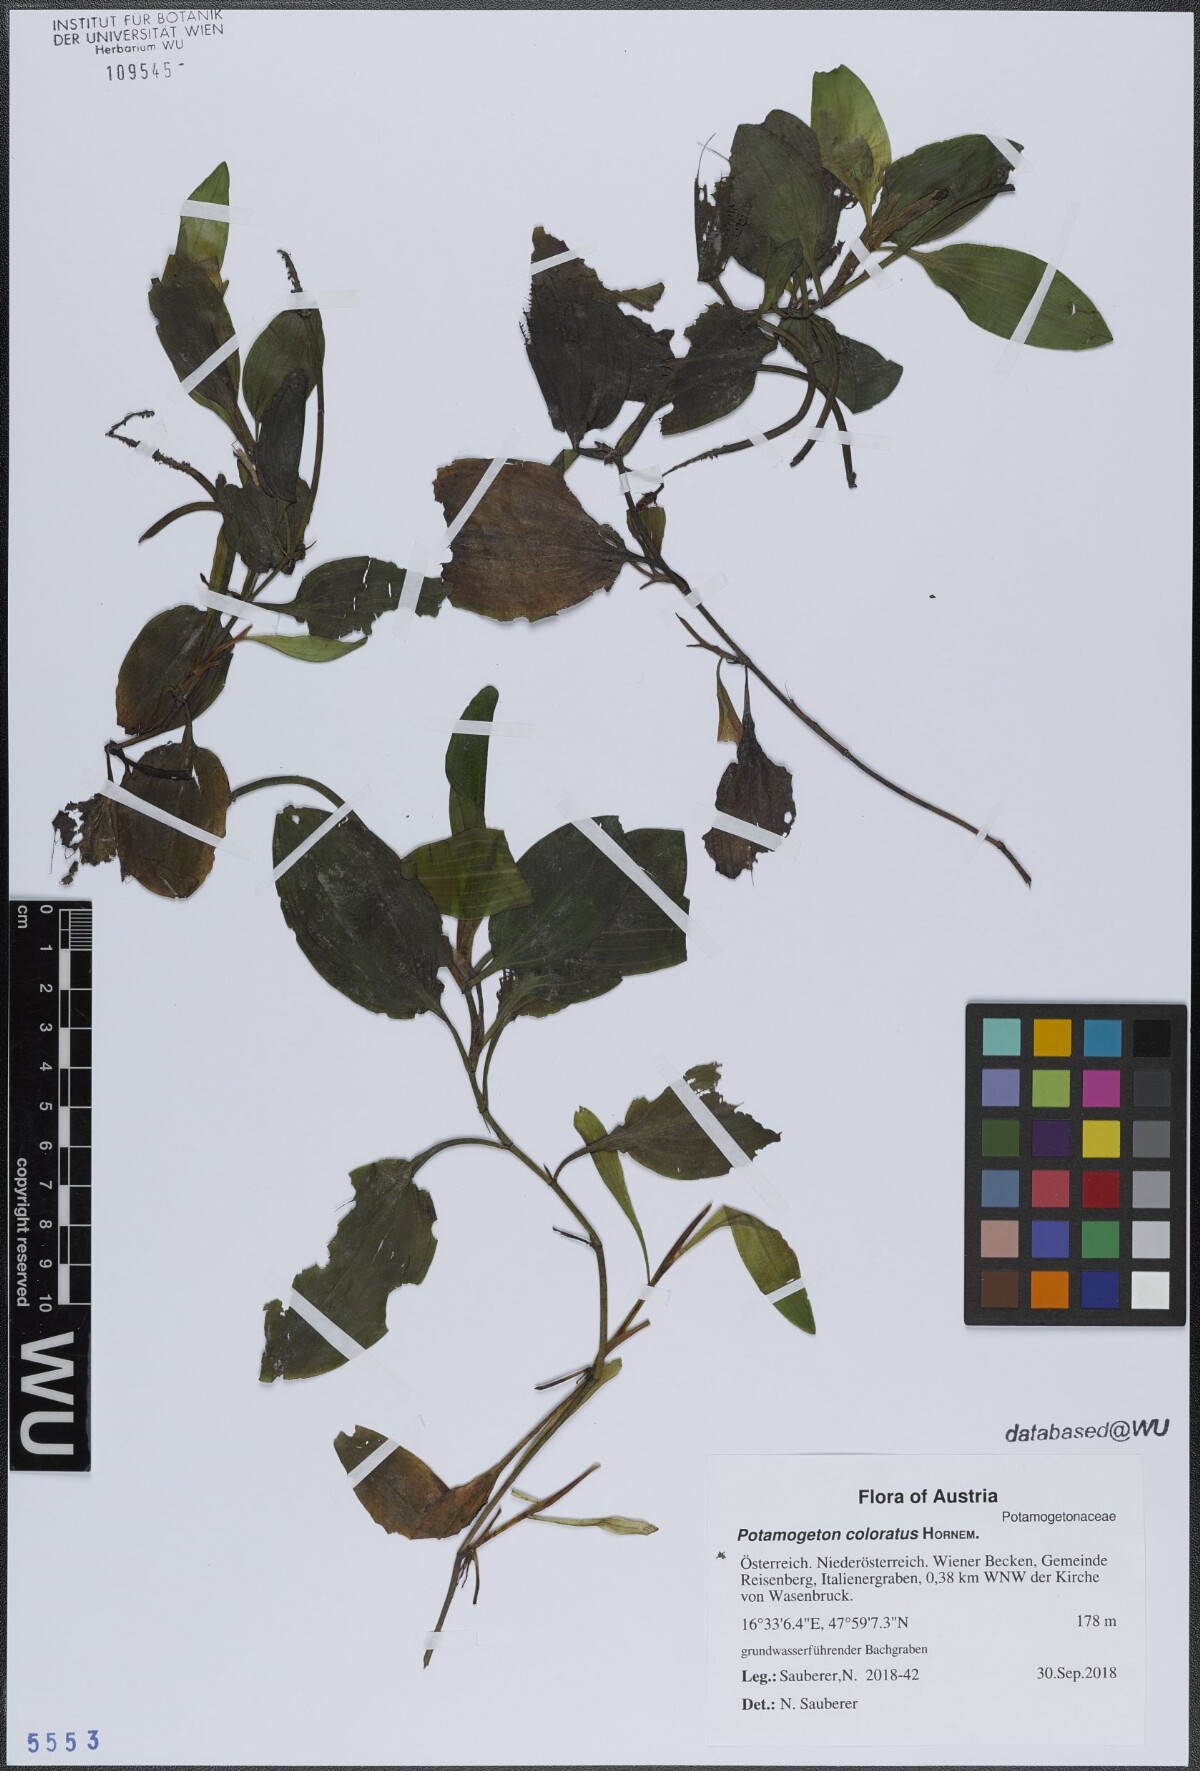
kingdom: Plantae
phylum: Tracheophyta
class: Liliopsida
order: Alismatales
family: Potamogetonaceae
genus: Potamogeton
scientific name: Potamogeton coloratus
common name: Fen pondweed
